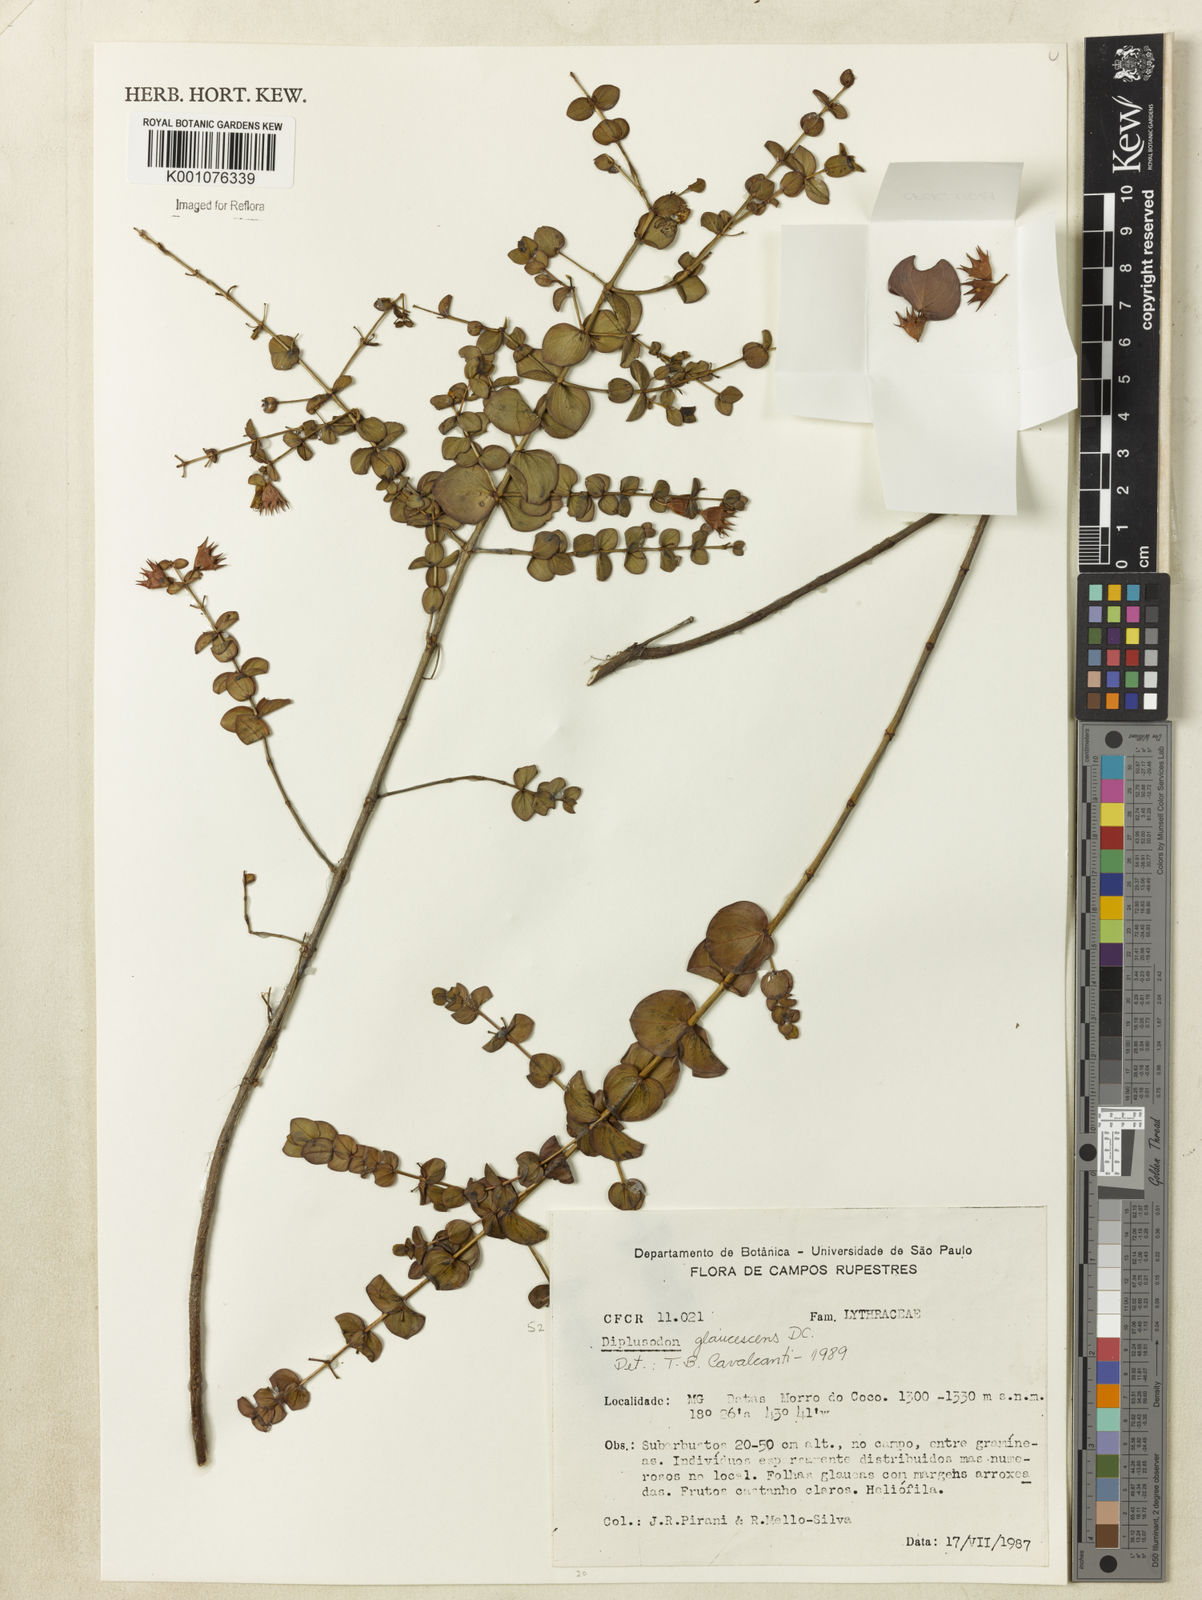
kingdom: Plantae
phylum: Tracheophyta
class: Magnoliopsida
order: Myrtales
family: Lythraceae
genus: Diplusodon
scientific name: Diplusodon glaucescens
